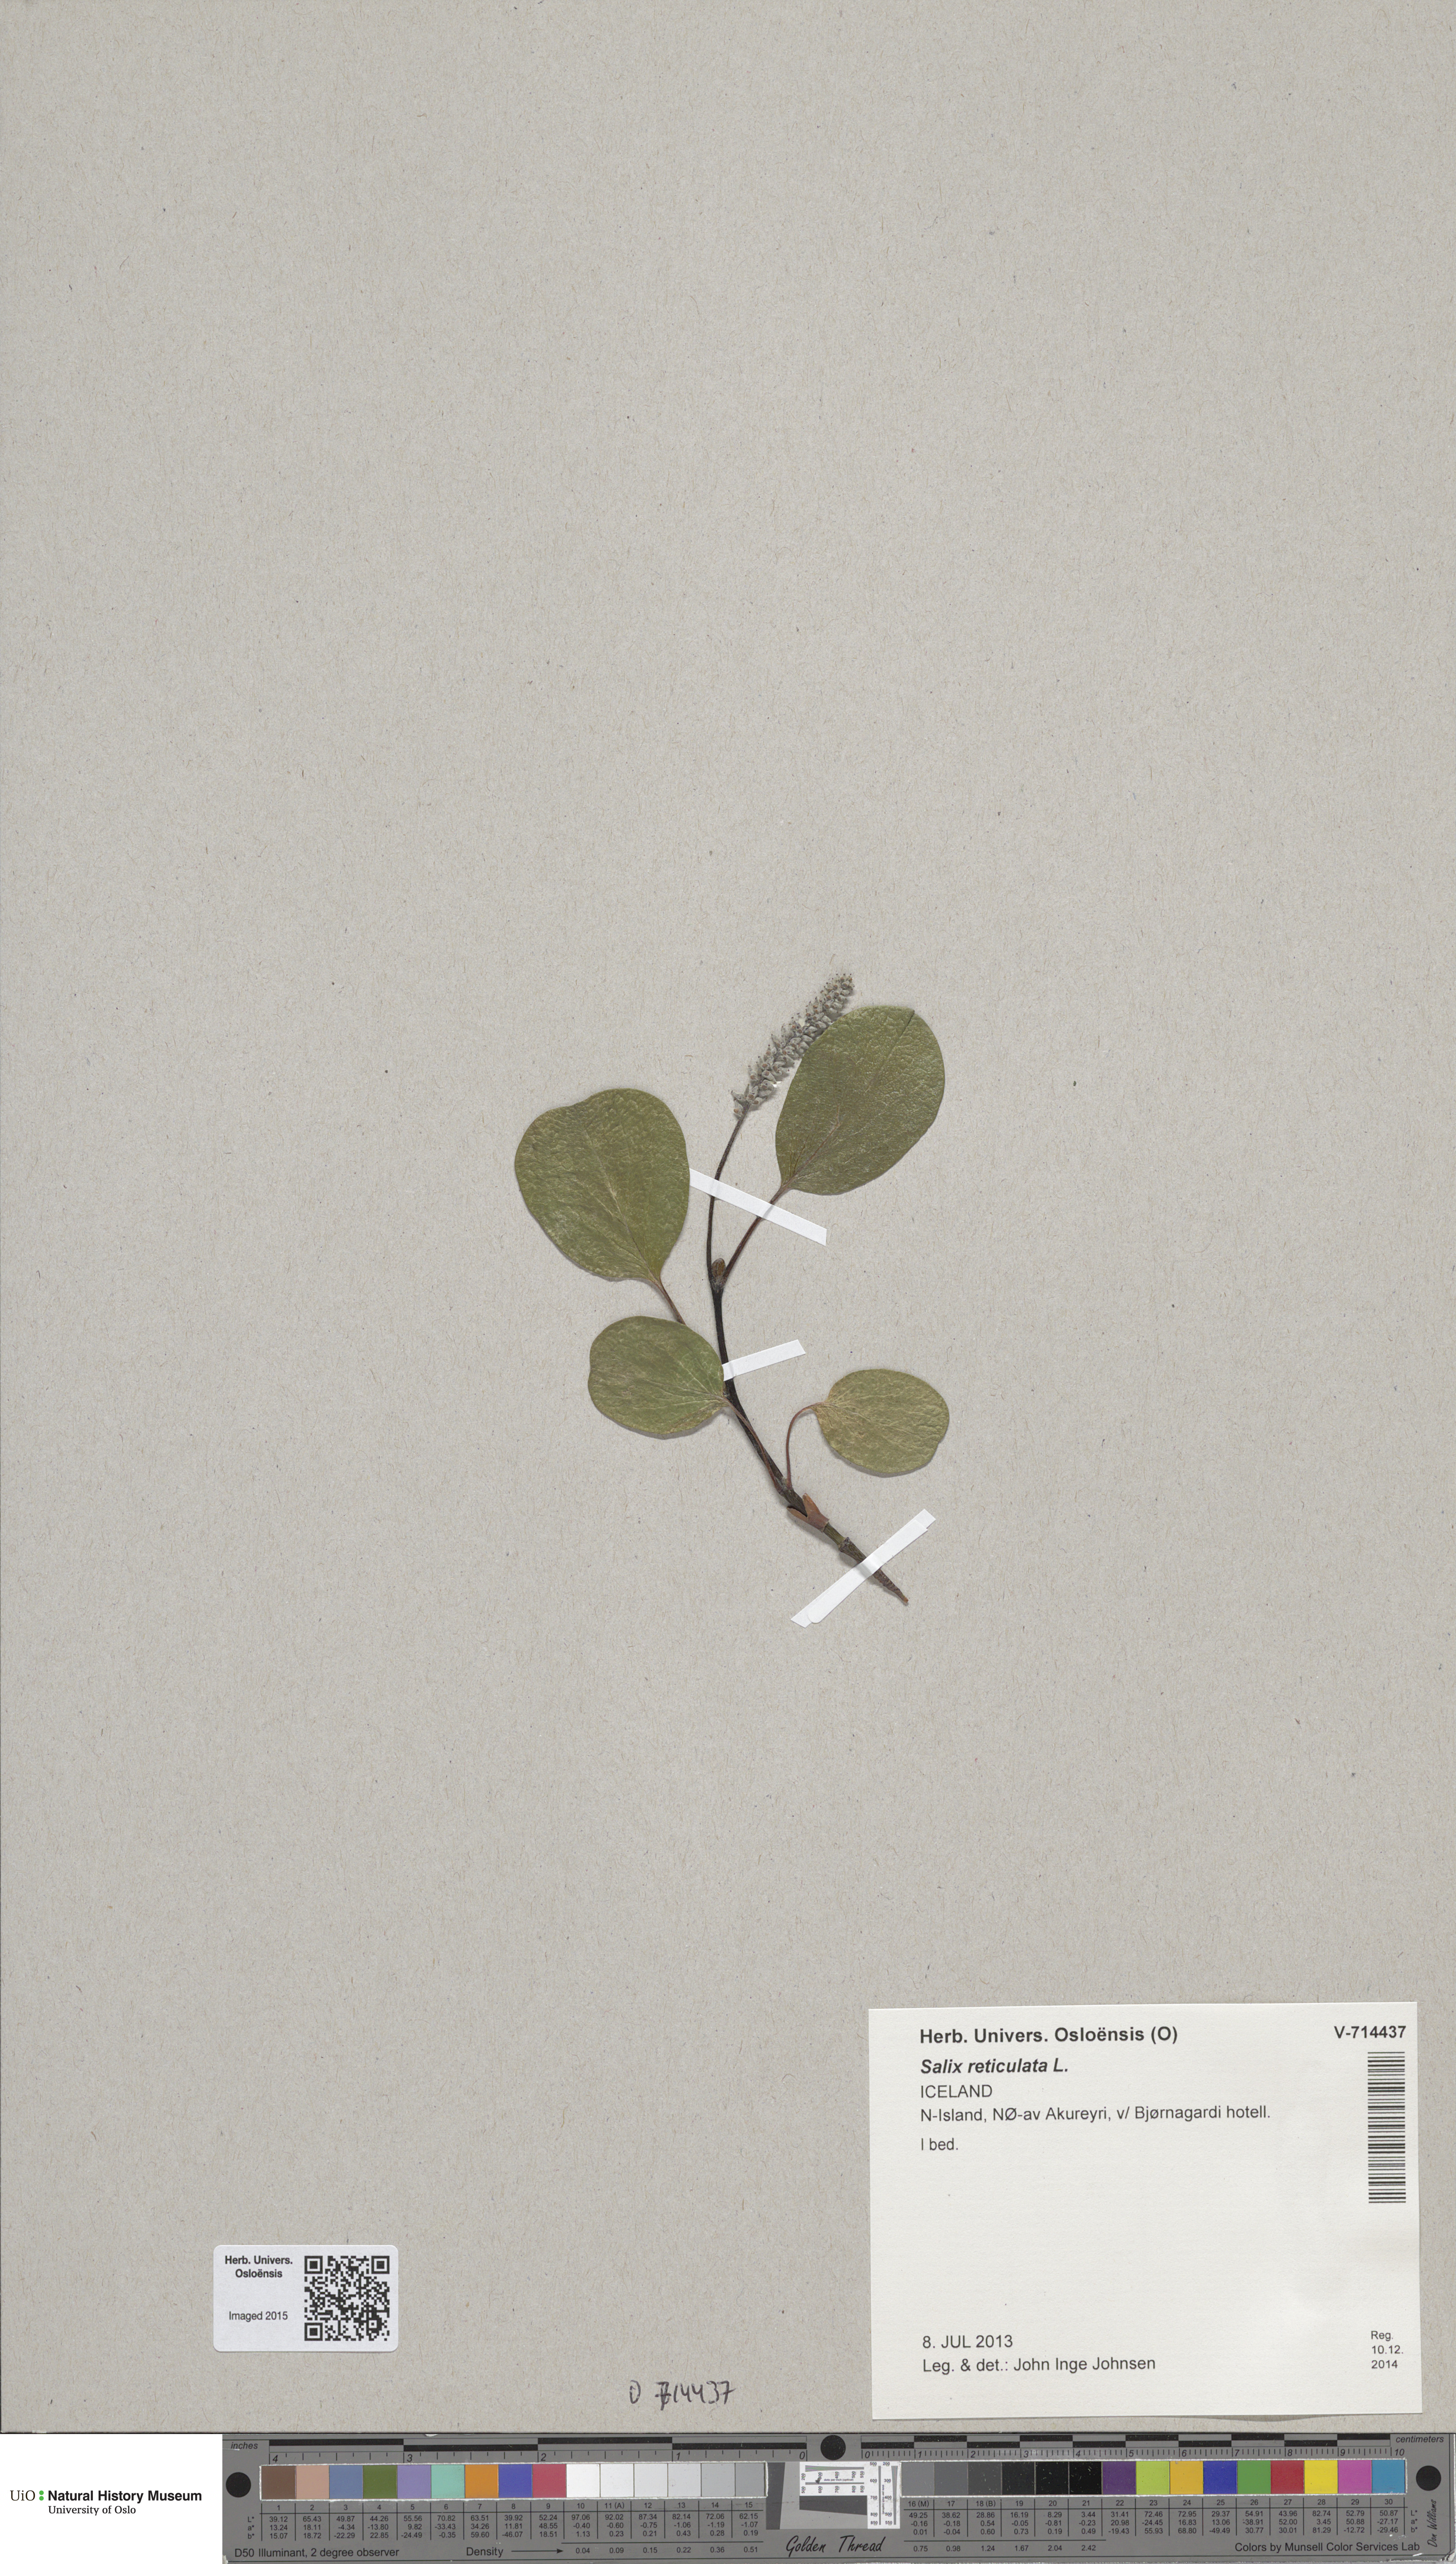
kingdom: Plantae
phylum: Tracheophyta
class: Magnoliopsida
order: Malpighiales
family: Salicaceae
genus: Salix
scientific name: Salix reticulata
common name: Net-leaved willow
